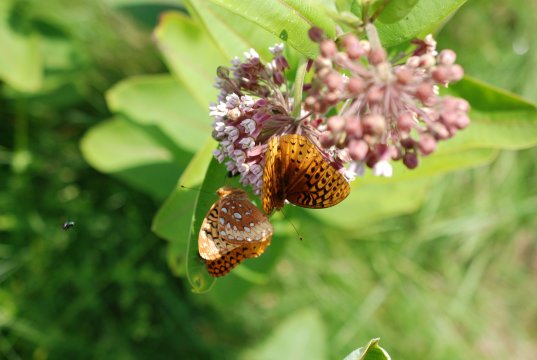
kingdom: Animalia
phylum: Arthropoda
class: Insecta
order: Lepidoptera
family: Nymphalidae
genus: Speyeria
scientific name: Speyeria cybele
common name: Great Spangled Fritillary
